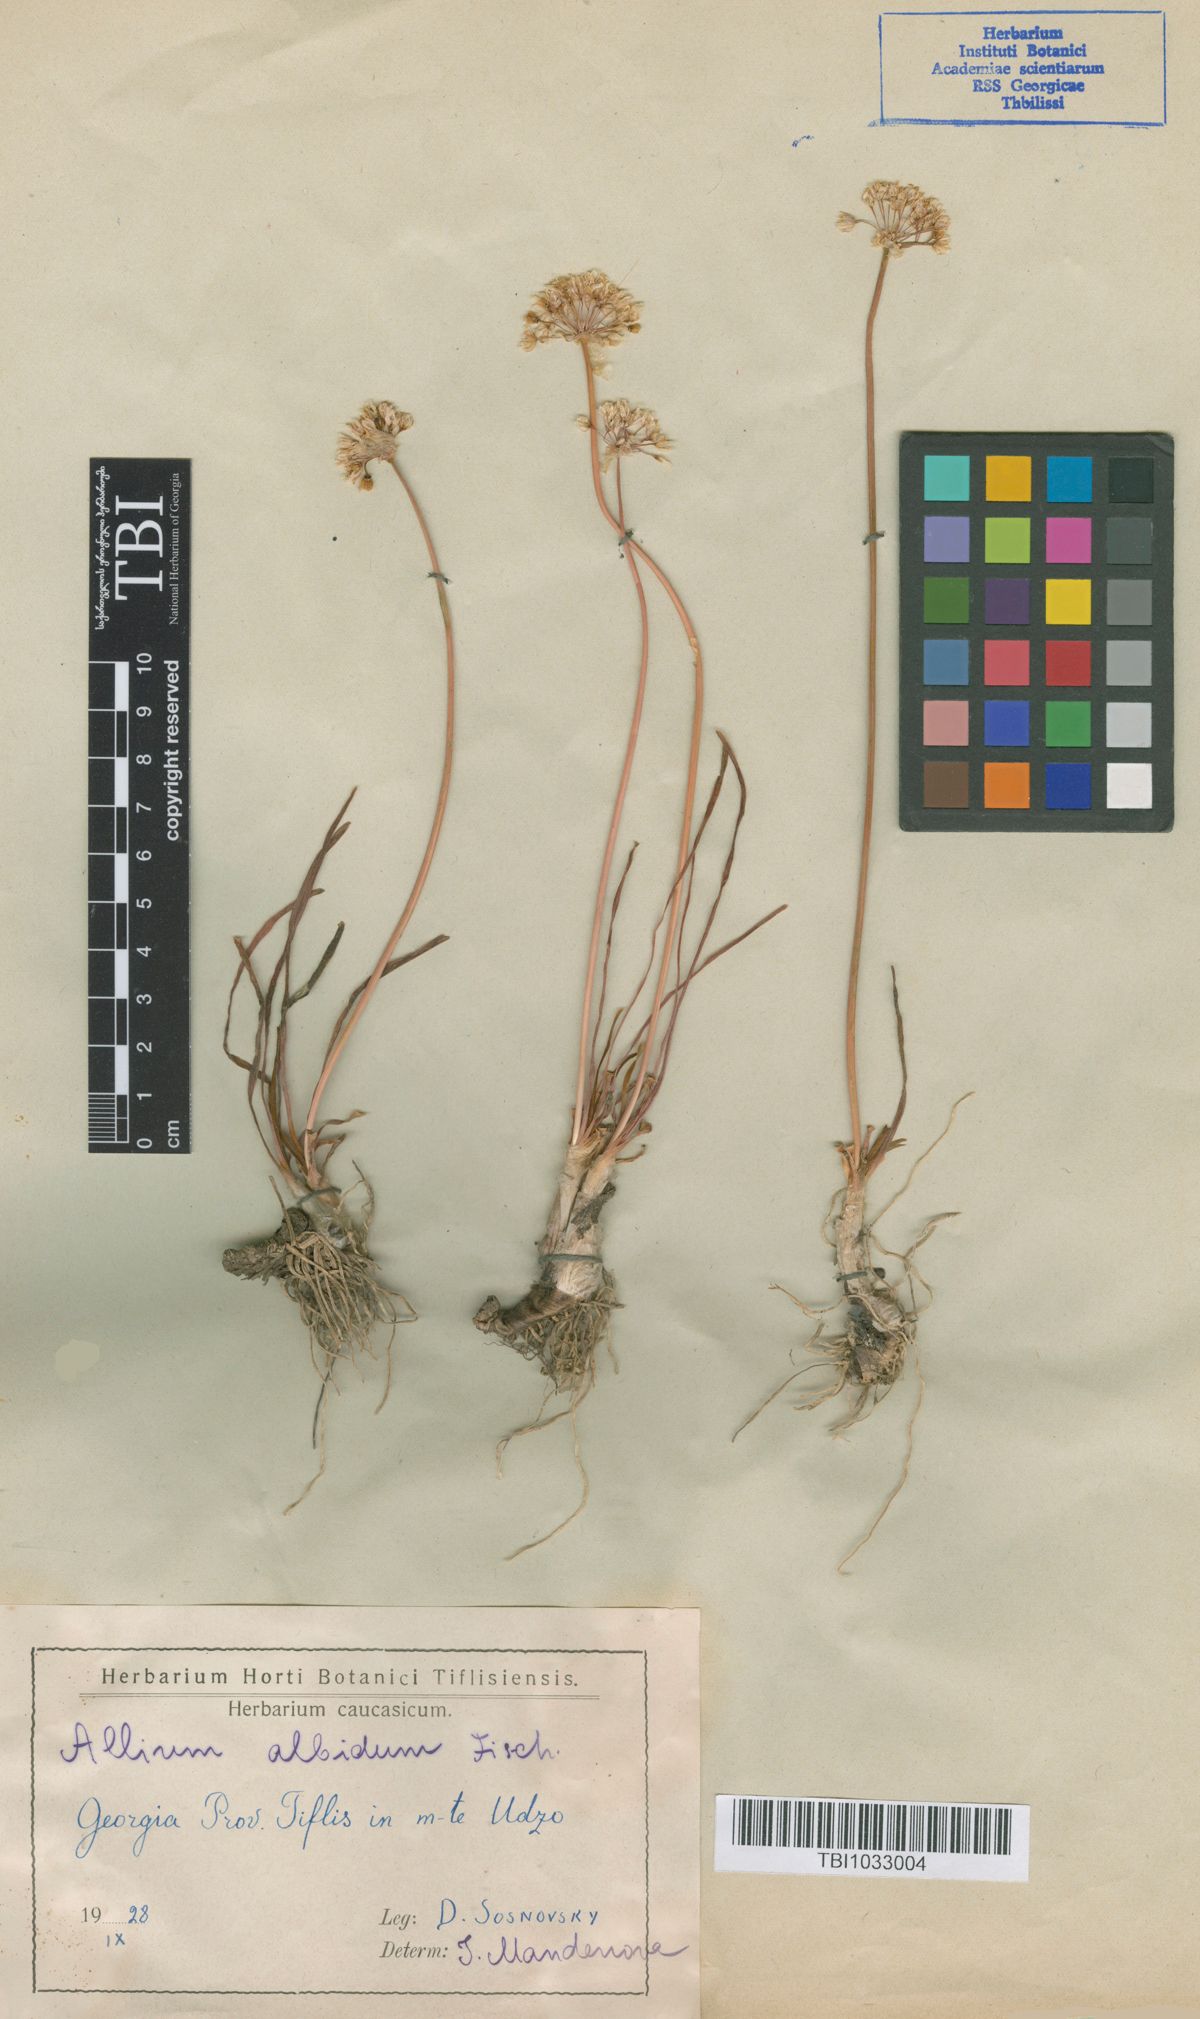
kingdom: Plantae
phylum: Tracheophyta
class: Liliopsida
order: Asparagales
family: Amaryllidaceae
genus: Allium
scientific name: Allium denudatum
